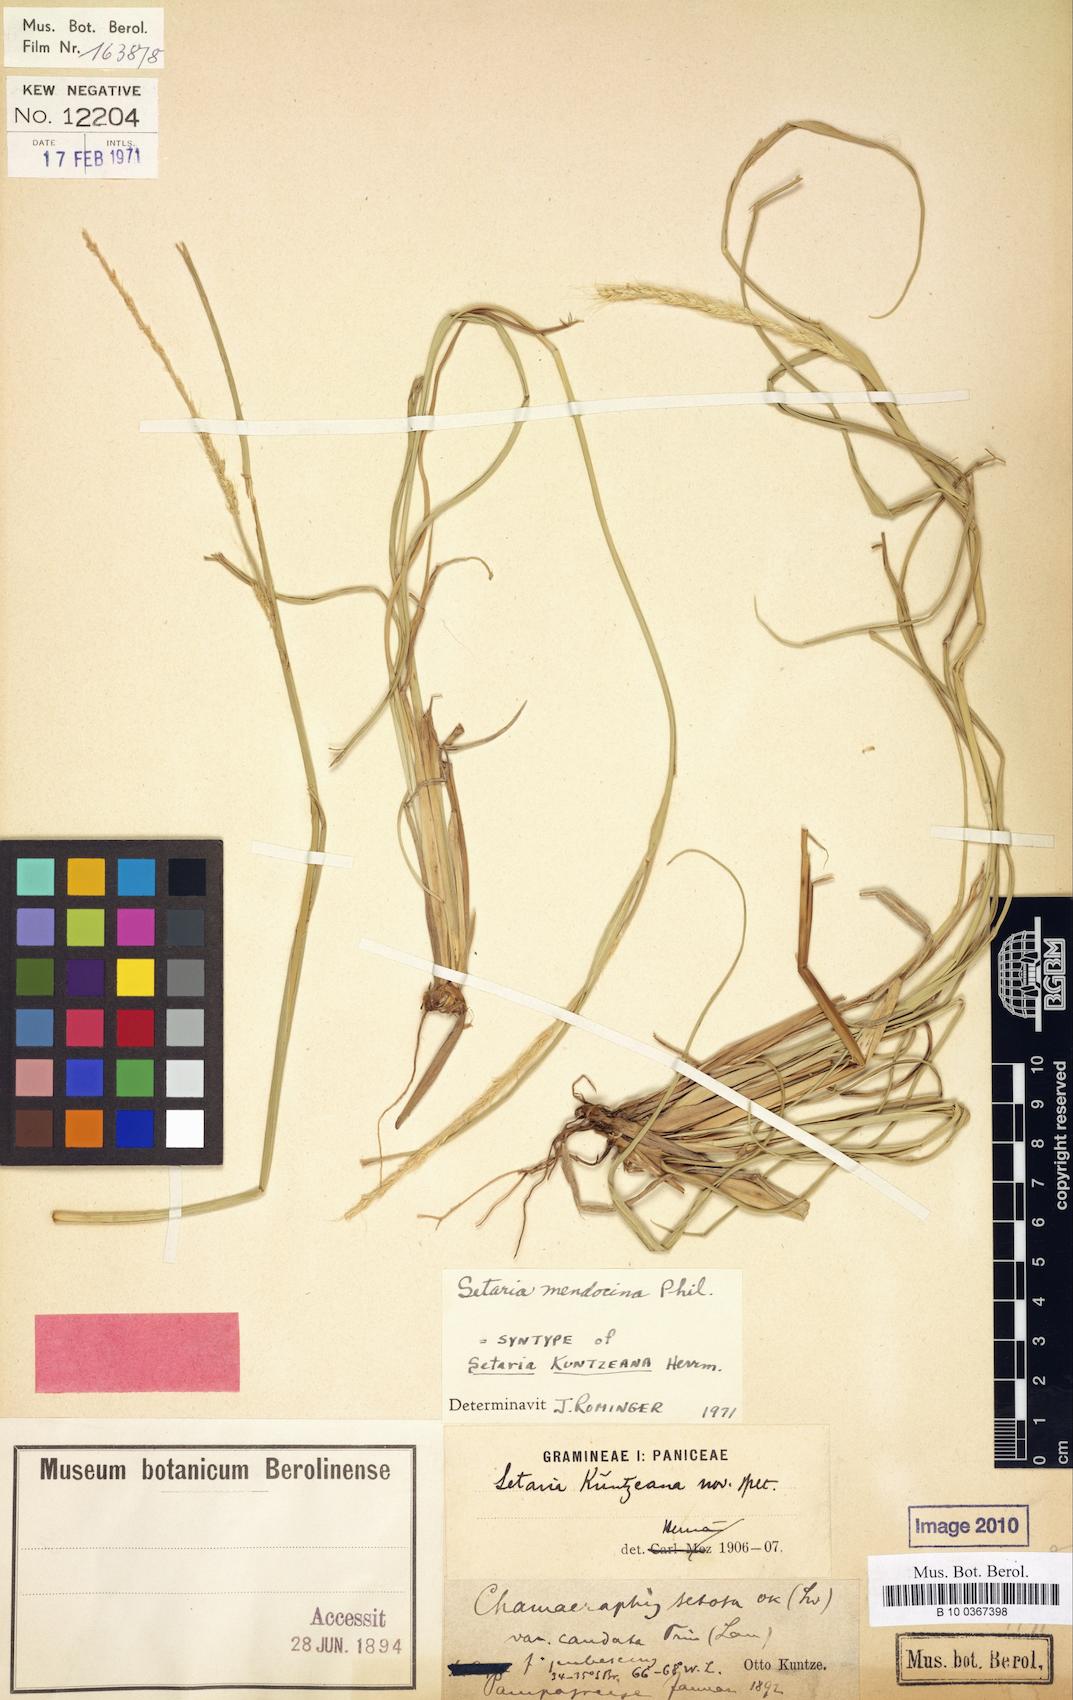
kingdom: Plantae
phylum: Tracheophyta
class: Liliopsida
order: Poales
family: Poaceae
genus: Setaria
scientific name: Setaria mendocina
